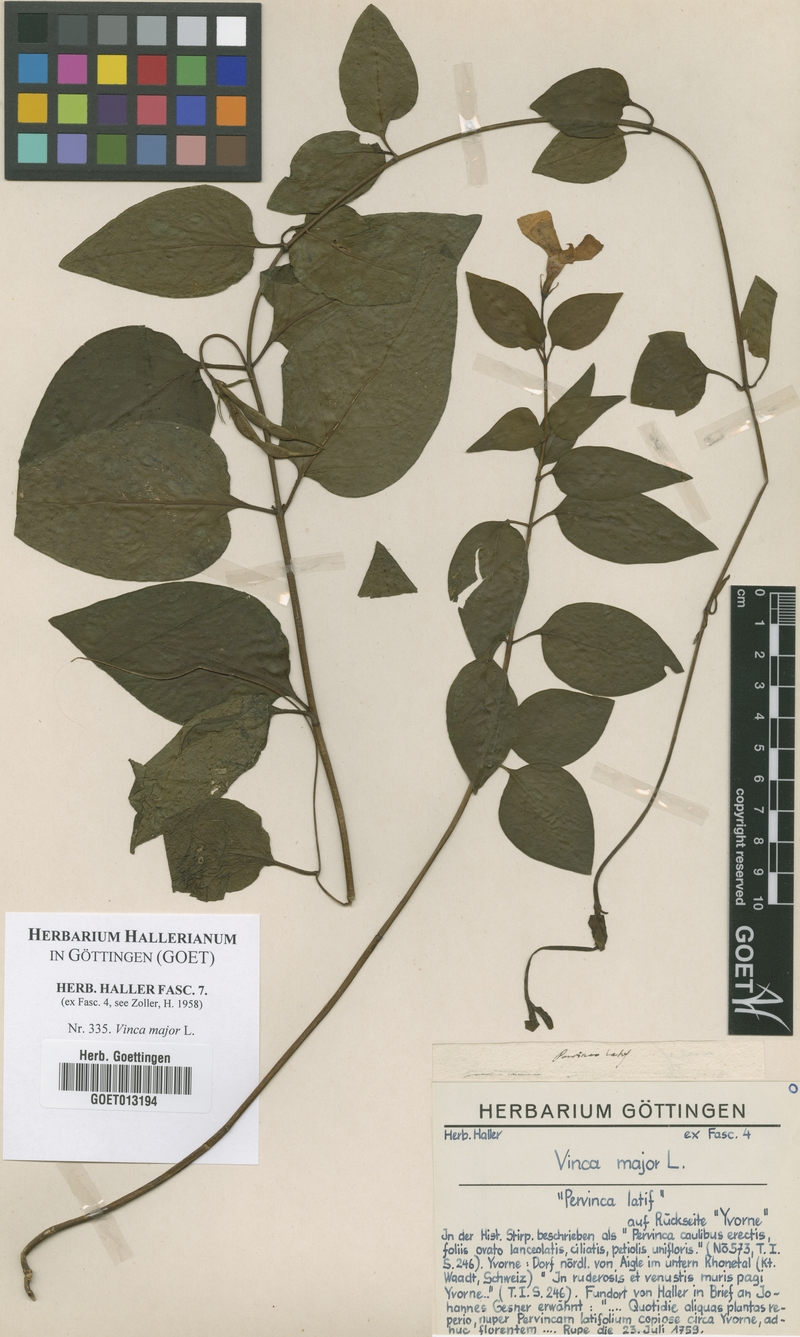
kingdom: Plantae
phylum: Tracheophyta
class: Magnoliopsida
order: Gentianales
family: Apocynaceae
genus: Vinca
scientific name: Vinca major
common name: Greater periwinkle
